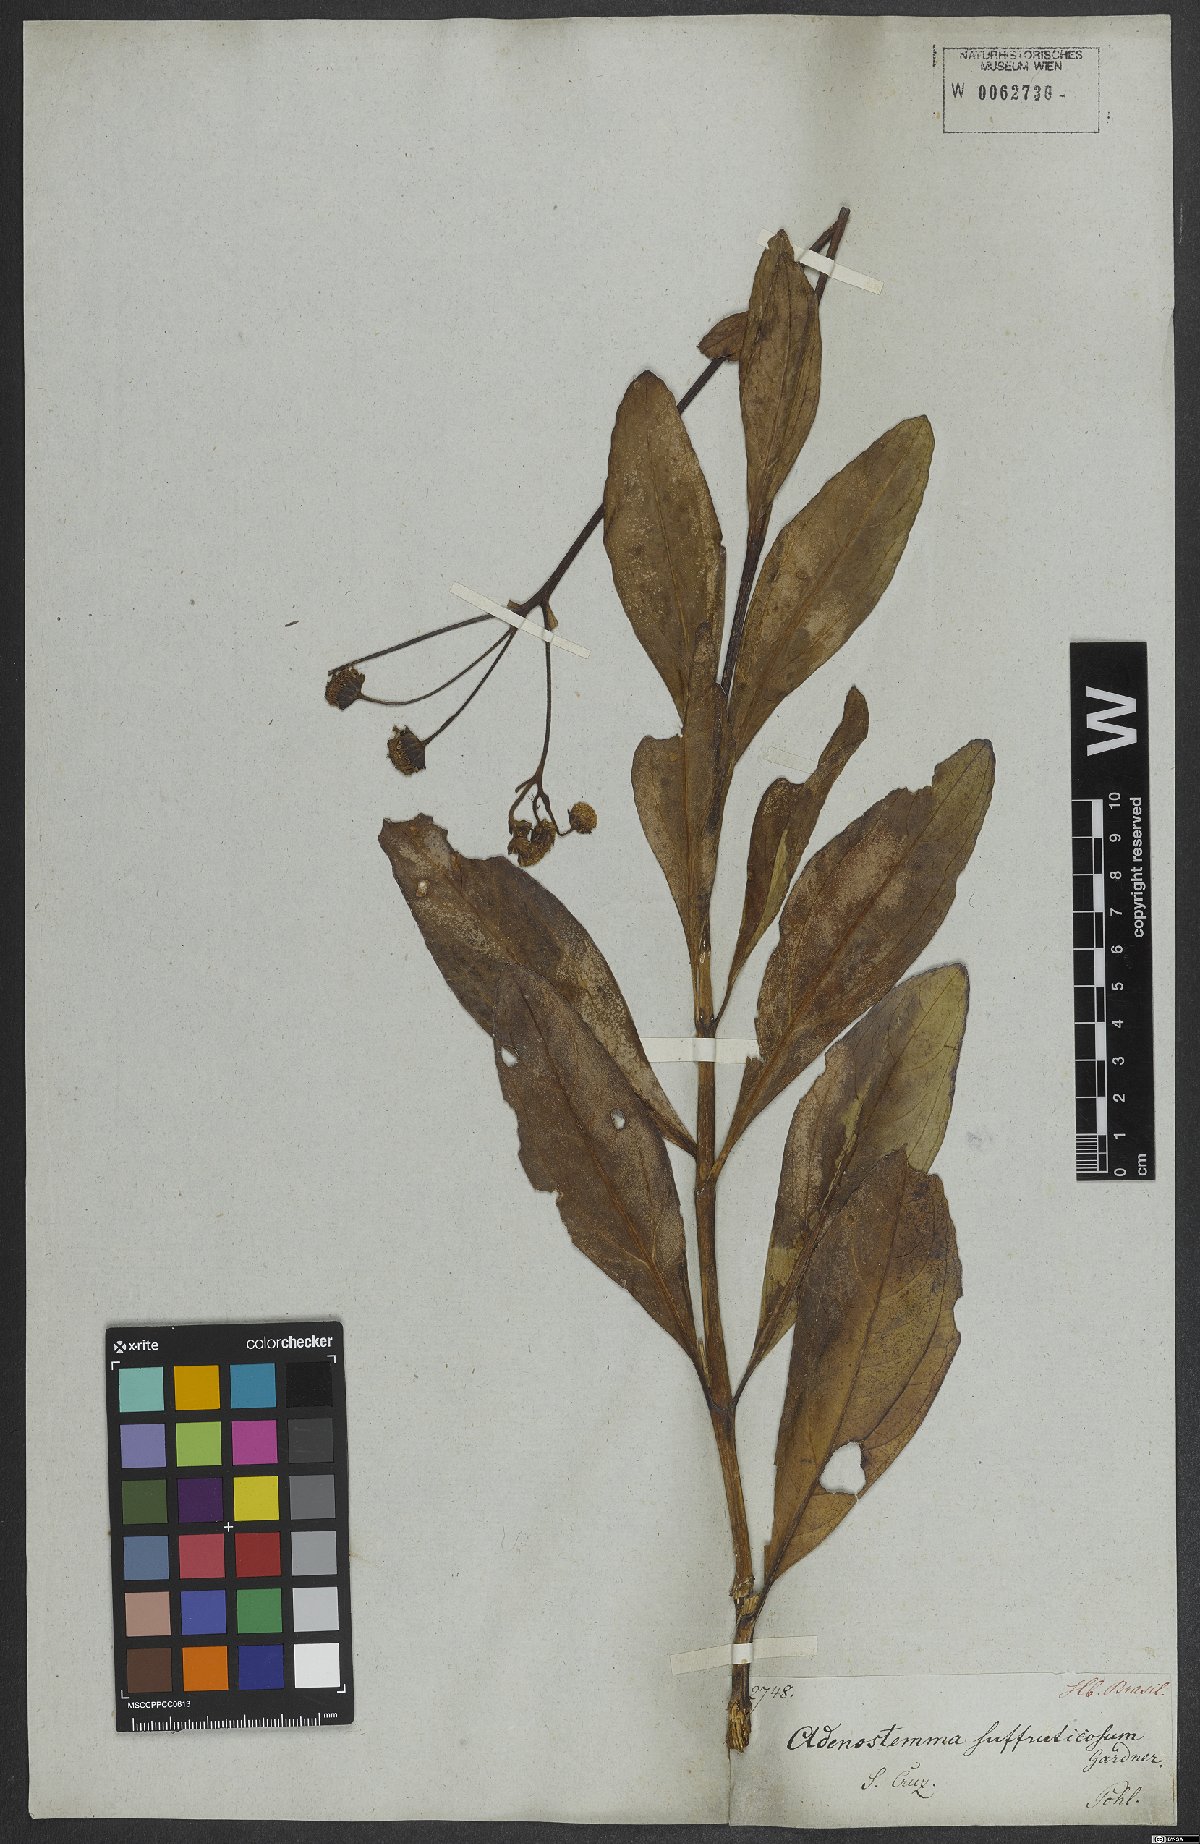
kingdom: Plantae
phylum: Tracheophyta
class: Magnoliopsida
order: Asterales
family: Asteraceae
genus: Adenostemma
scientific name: Adenostemma suffruticosum
